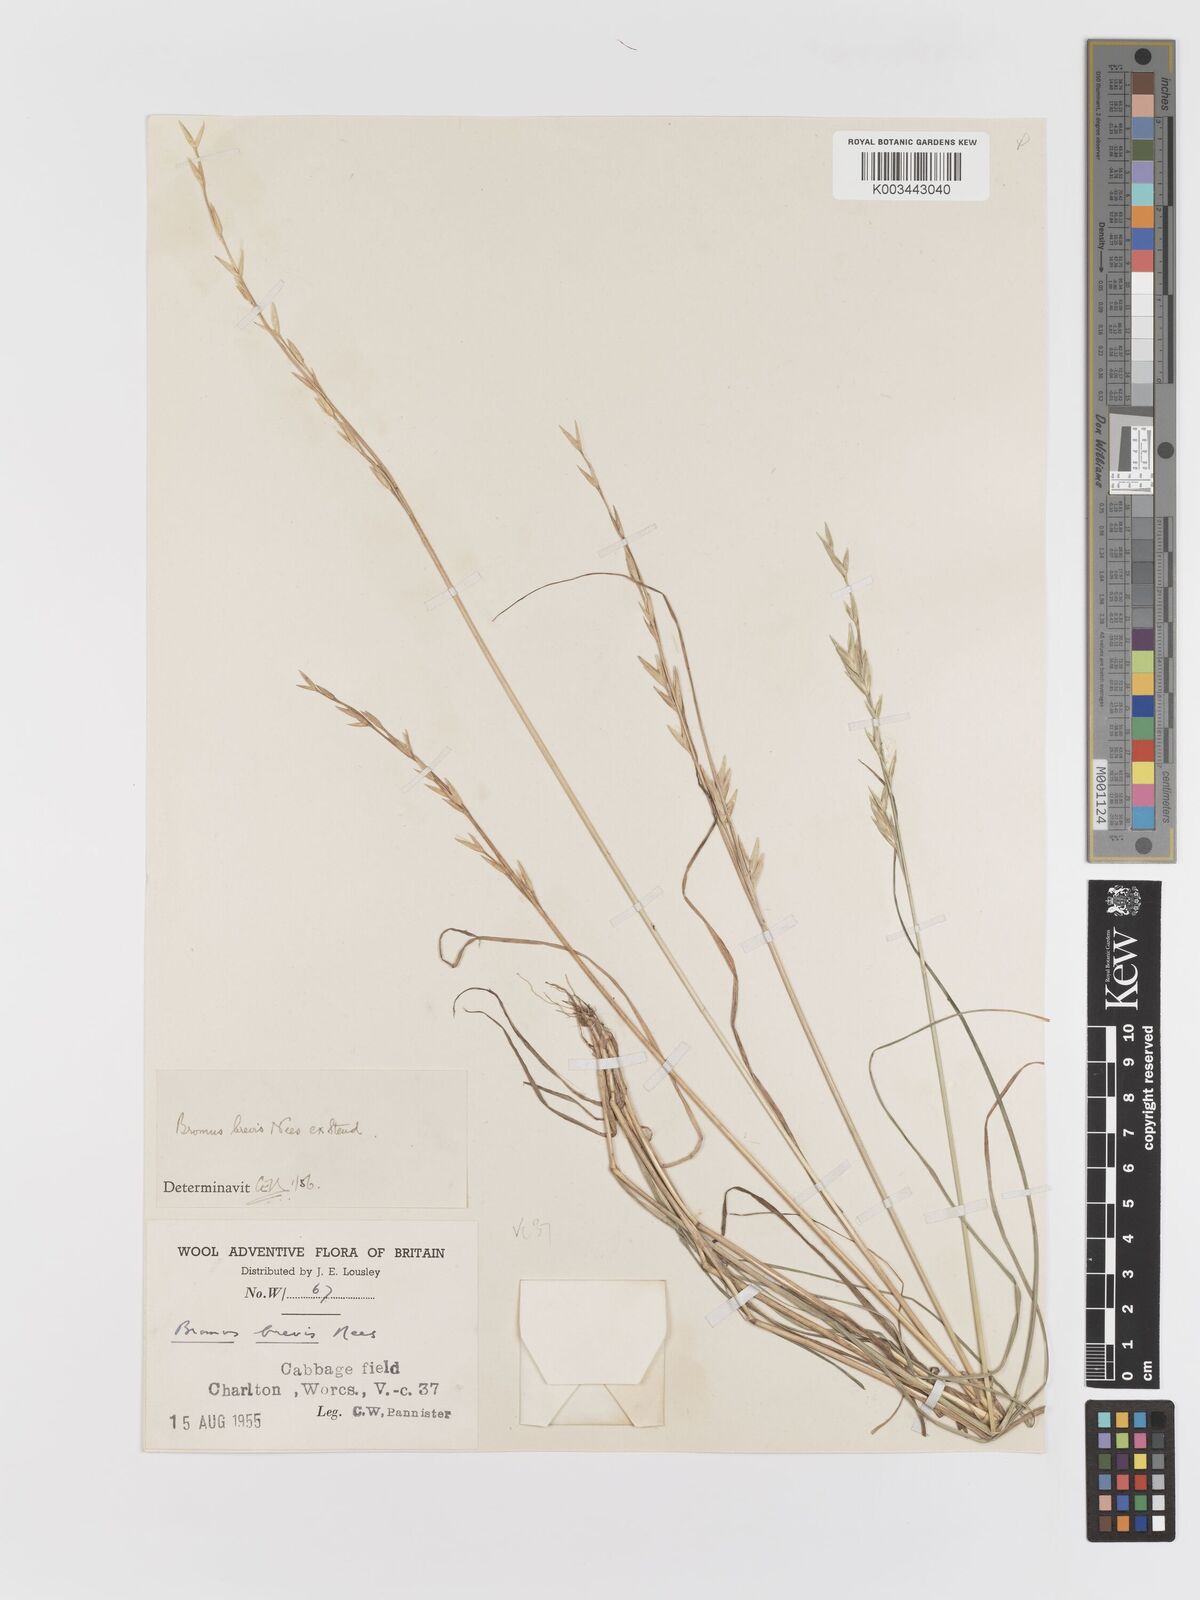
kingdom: Plantae
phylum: Tracheophyta
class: Liliopsida
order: Poales
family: Poaceae
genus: Bromus
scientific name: Bromus catharticus
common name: Rescuegrass
